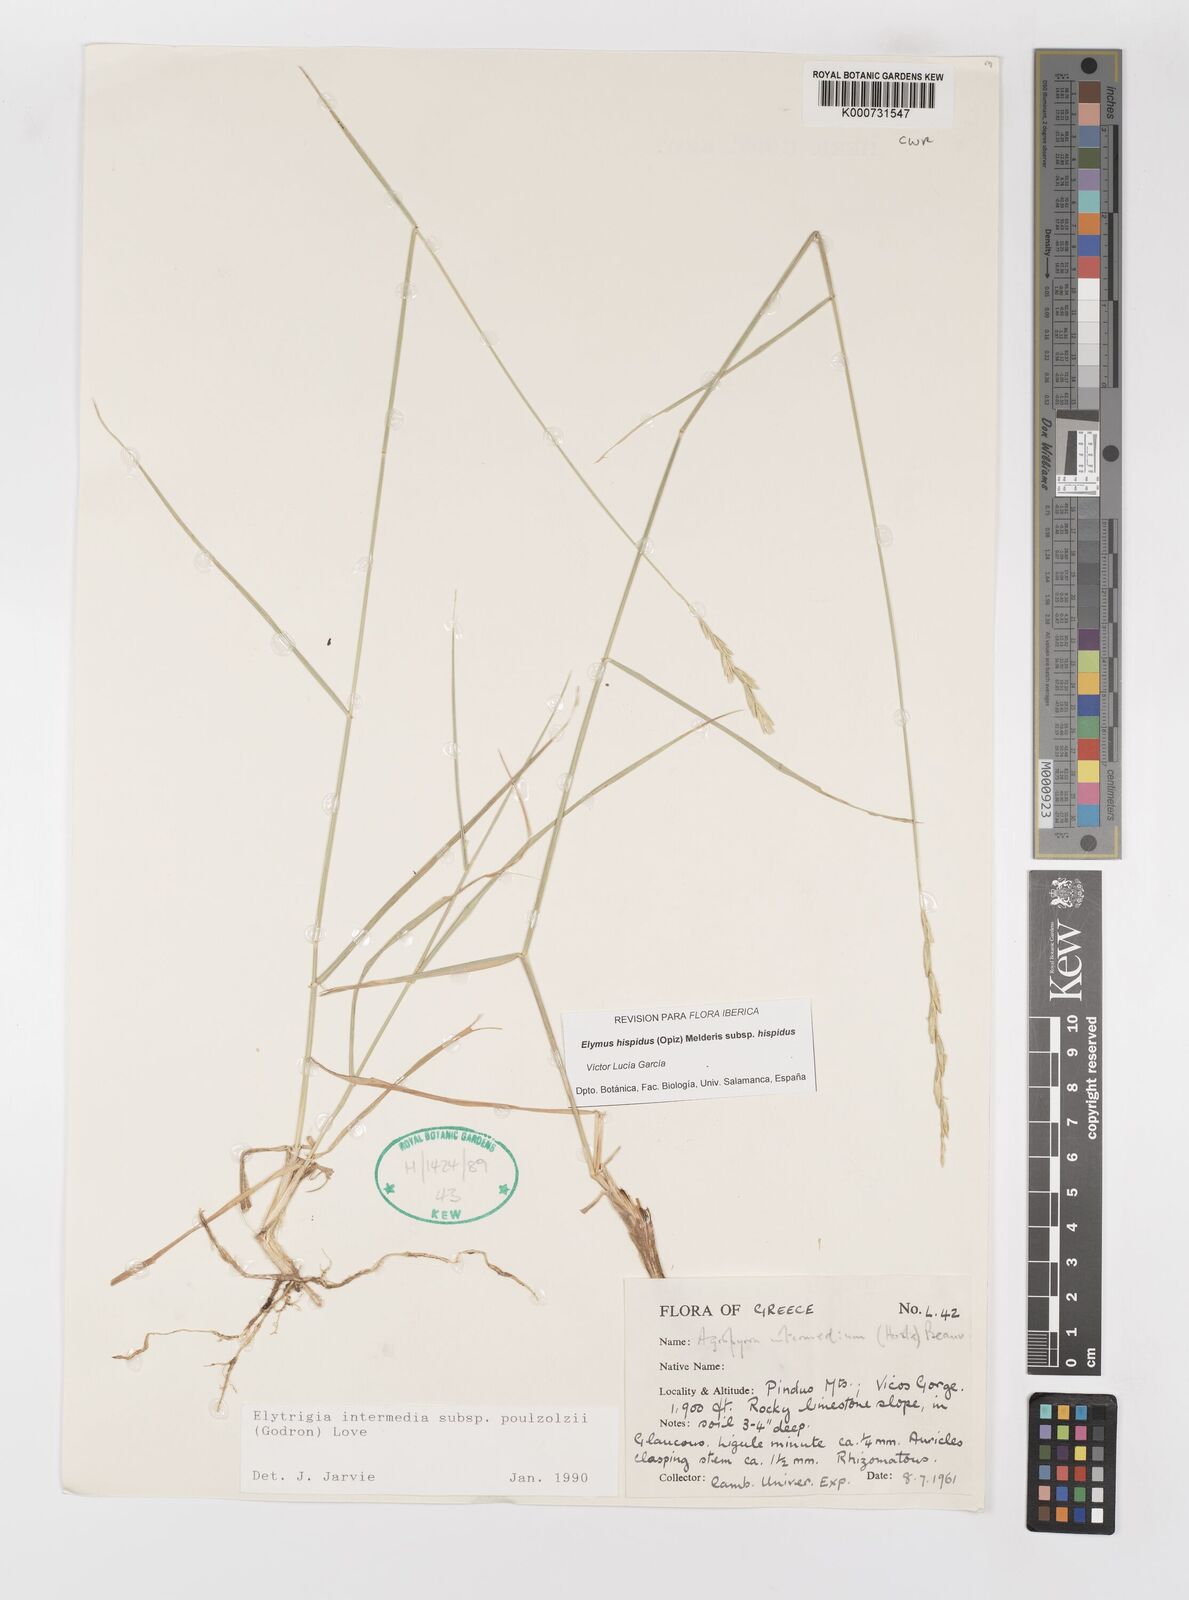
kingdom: Plantae
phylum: Tracheophyta
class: Liliopsida
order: Poales
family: Poaceae
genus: Thinopyrum
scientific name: Thinopyrum intermedium
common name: Intermediate wheatgrass
